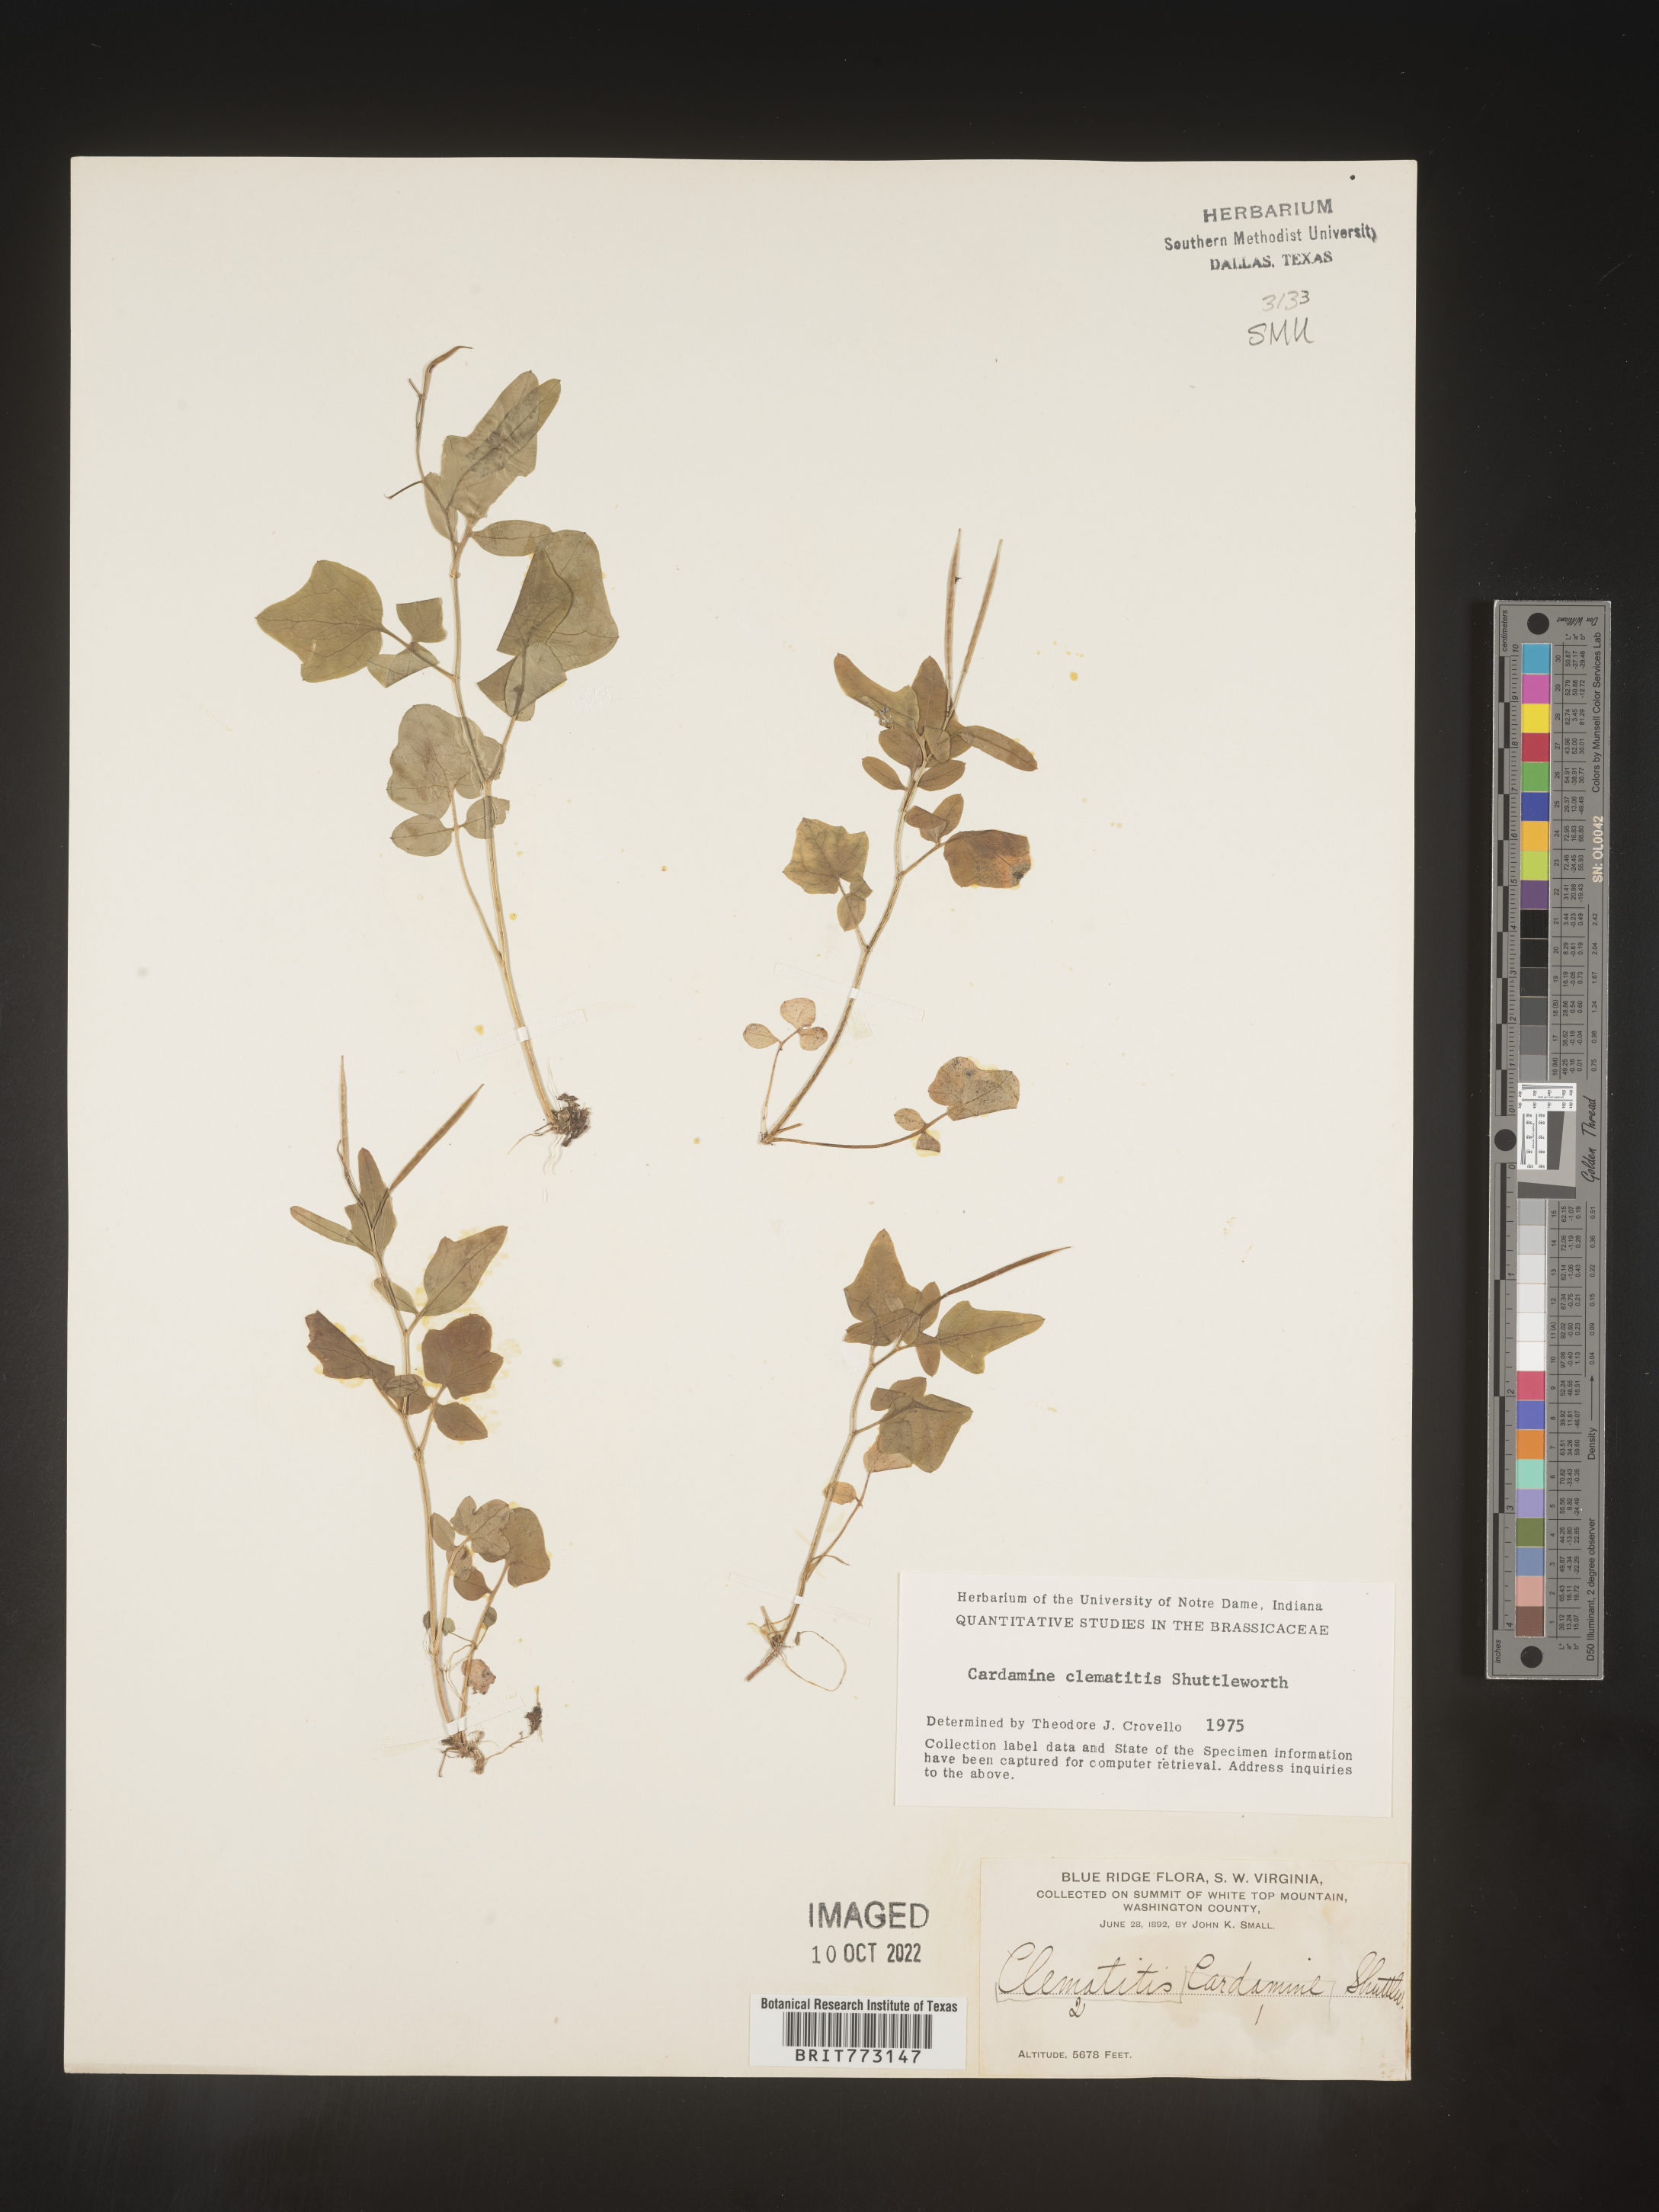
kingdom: Plantae
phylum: Tracheophyta
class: Magnoliopsida
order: Brassicales
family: Brassicaceae
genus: Cardamine
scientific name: Cardamine
